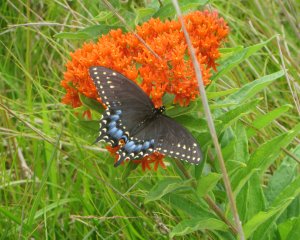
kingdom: Animalia
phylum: Arthropoda
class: Insecta
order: Lepidoptera
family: Papilionidae
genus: Papilio
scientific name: Papilio polyxenes
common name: Black Swallowtail
